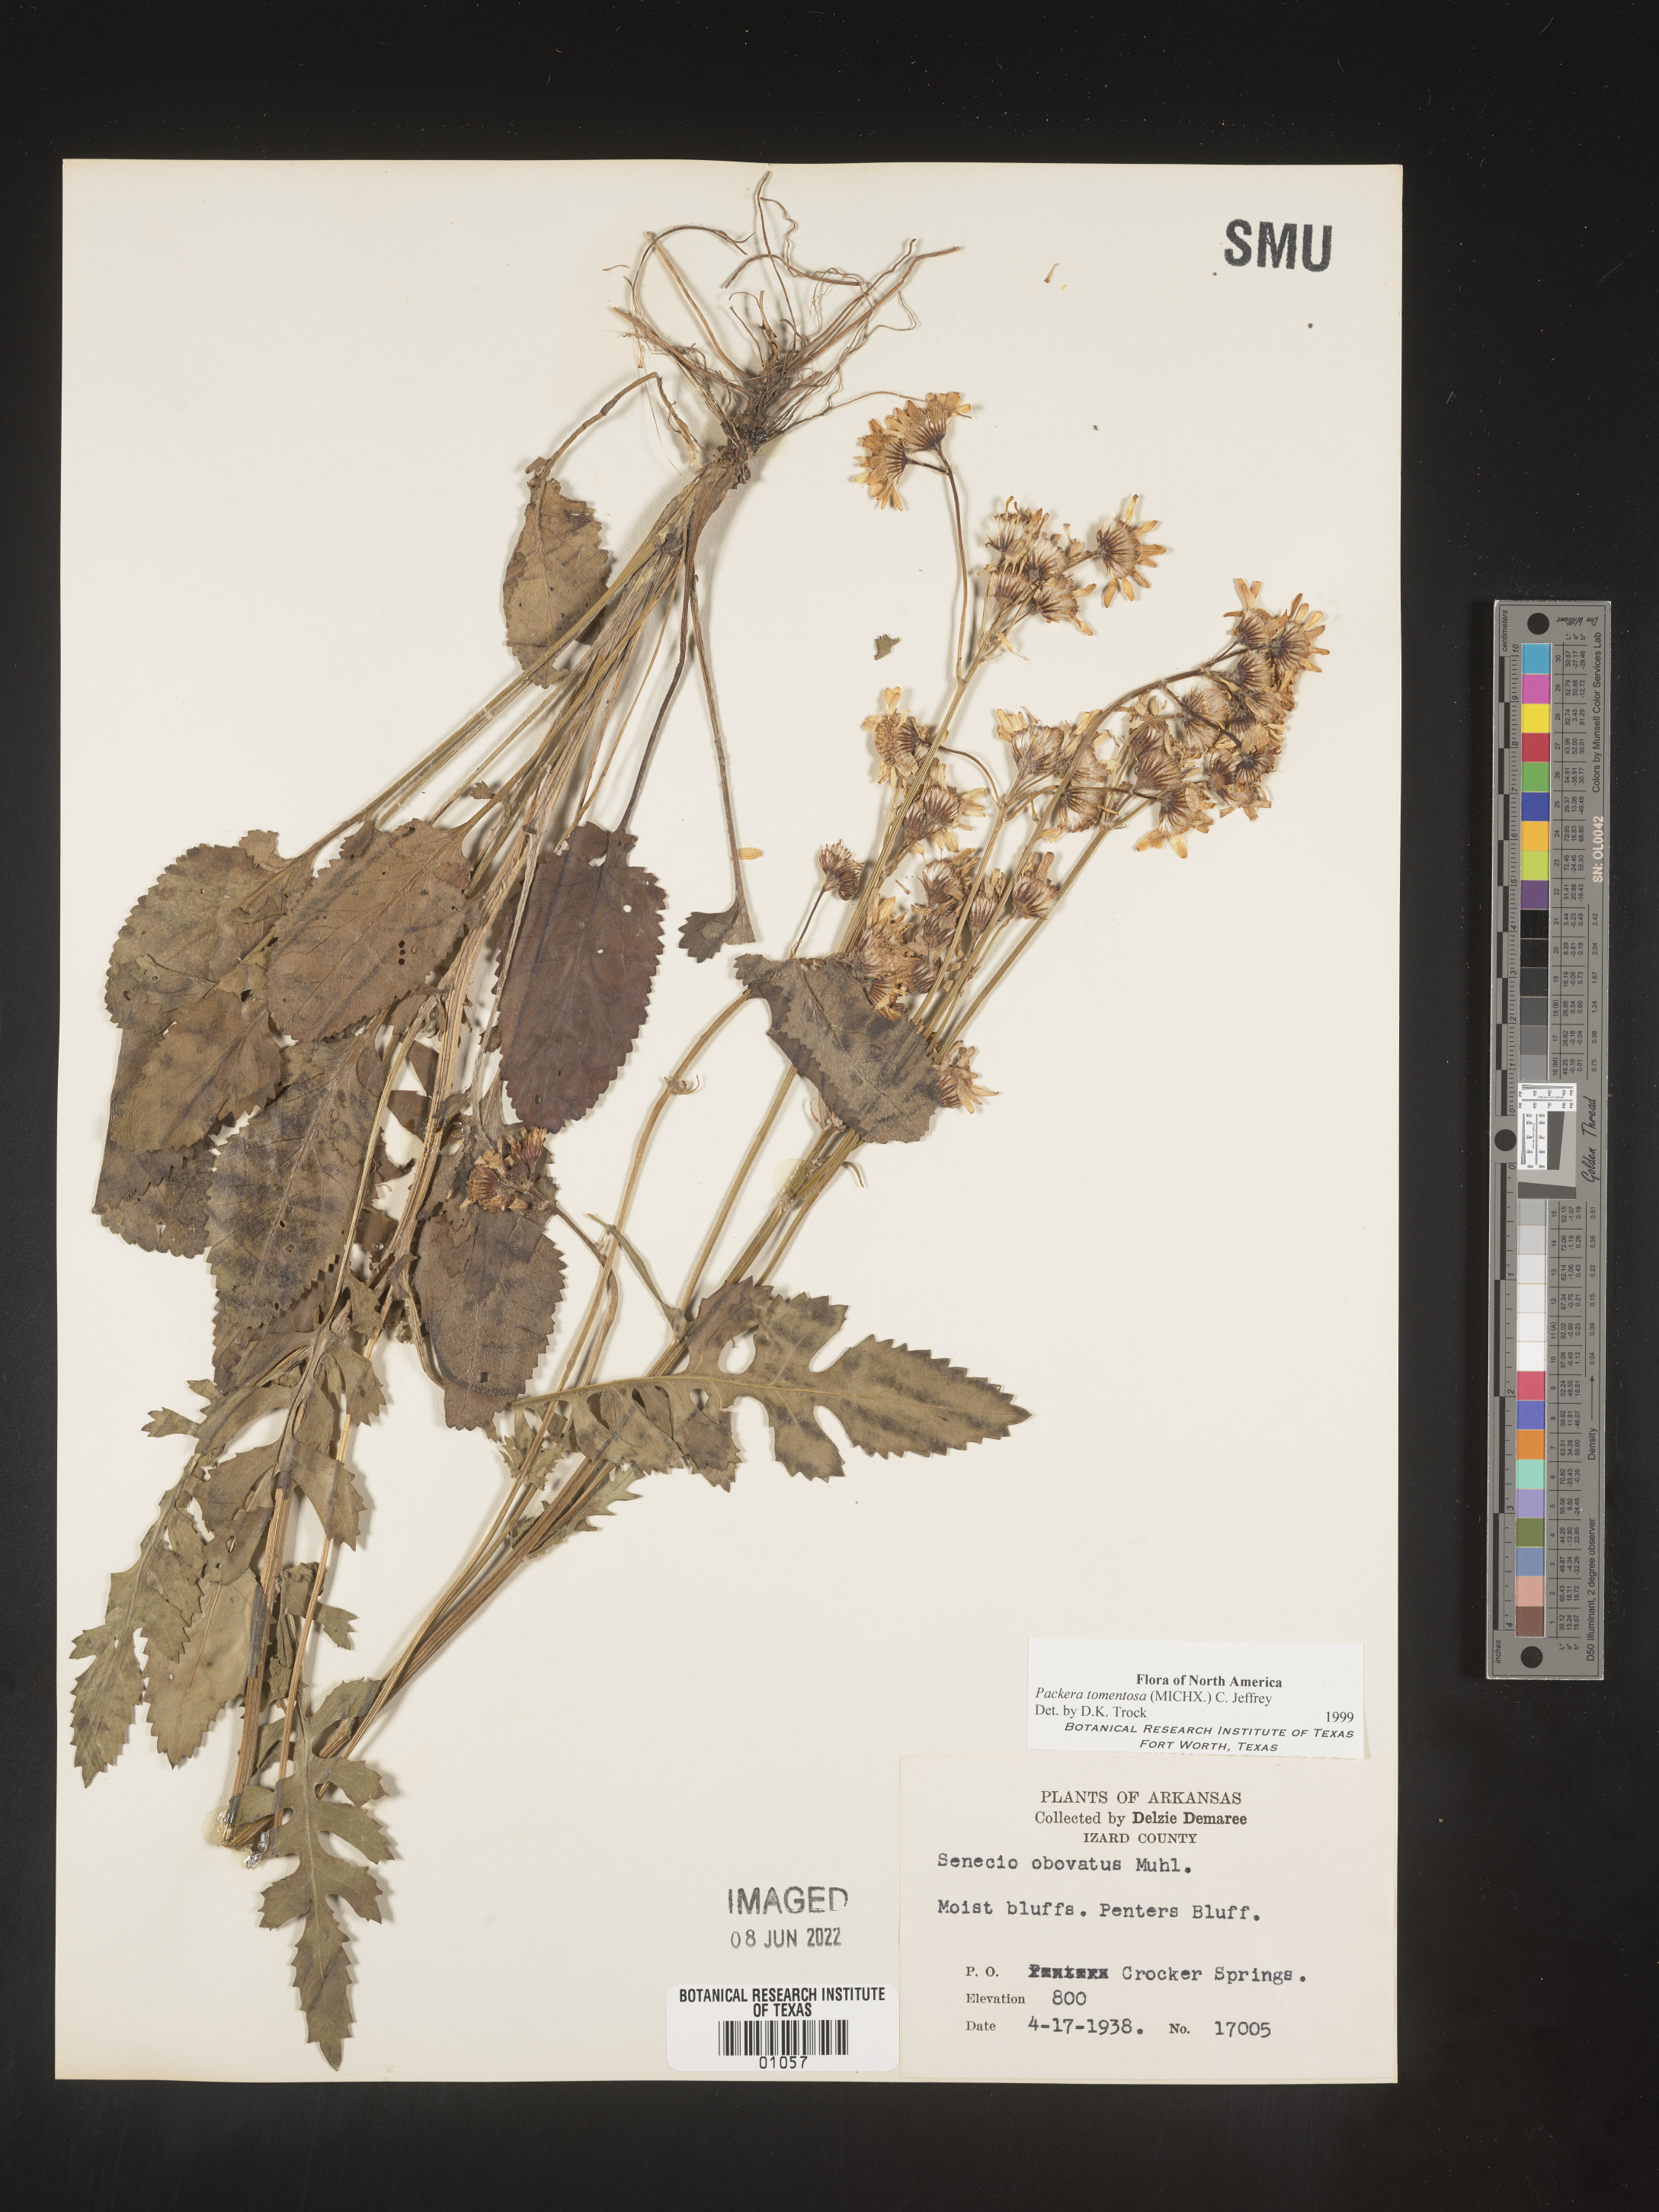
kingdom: Plantae
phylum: Tracheophyta
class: Magnoliopsida
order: Asterales
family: Asteraceae
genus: Packera
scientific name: Packera dubia
